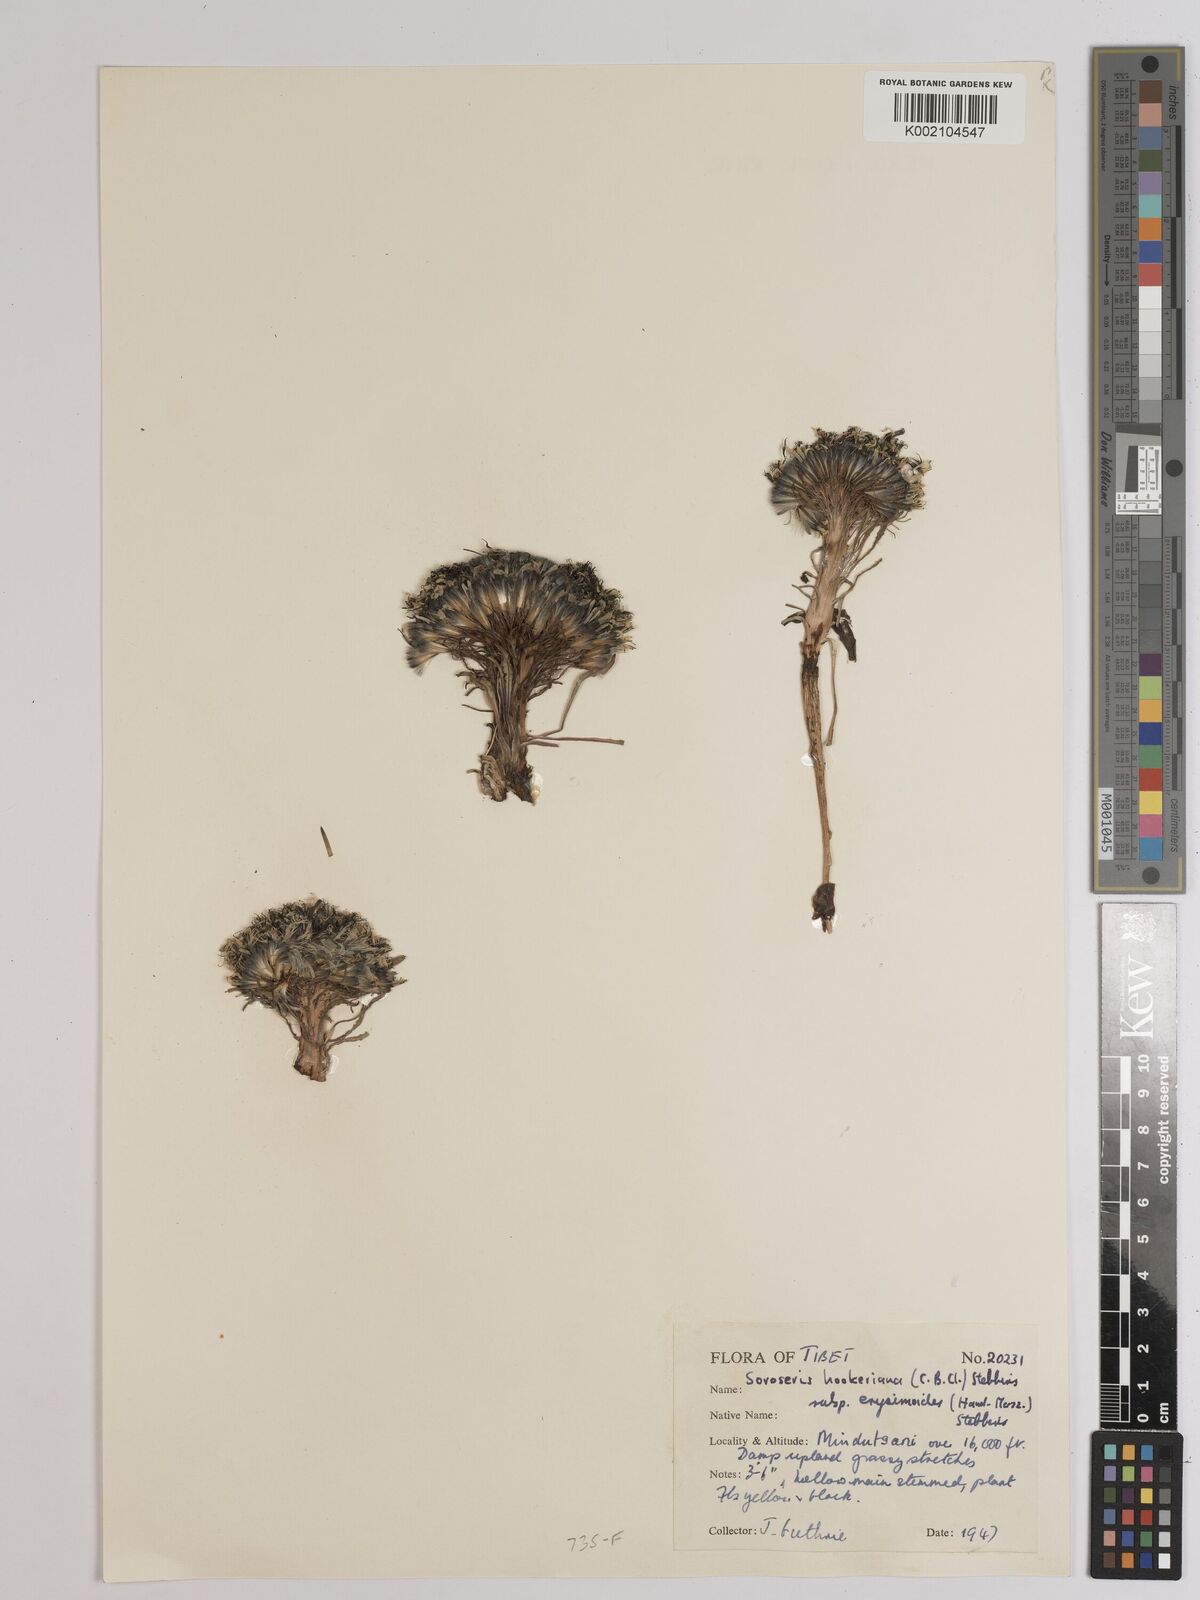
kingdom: Plantae
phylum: Tracheophyta
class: Magnoliopsida
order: Asterales
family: Asteraceae
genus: Soroseris
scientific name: Soroseris hookeriana
